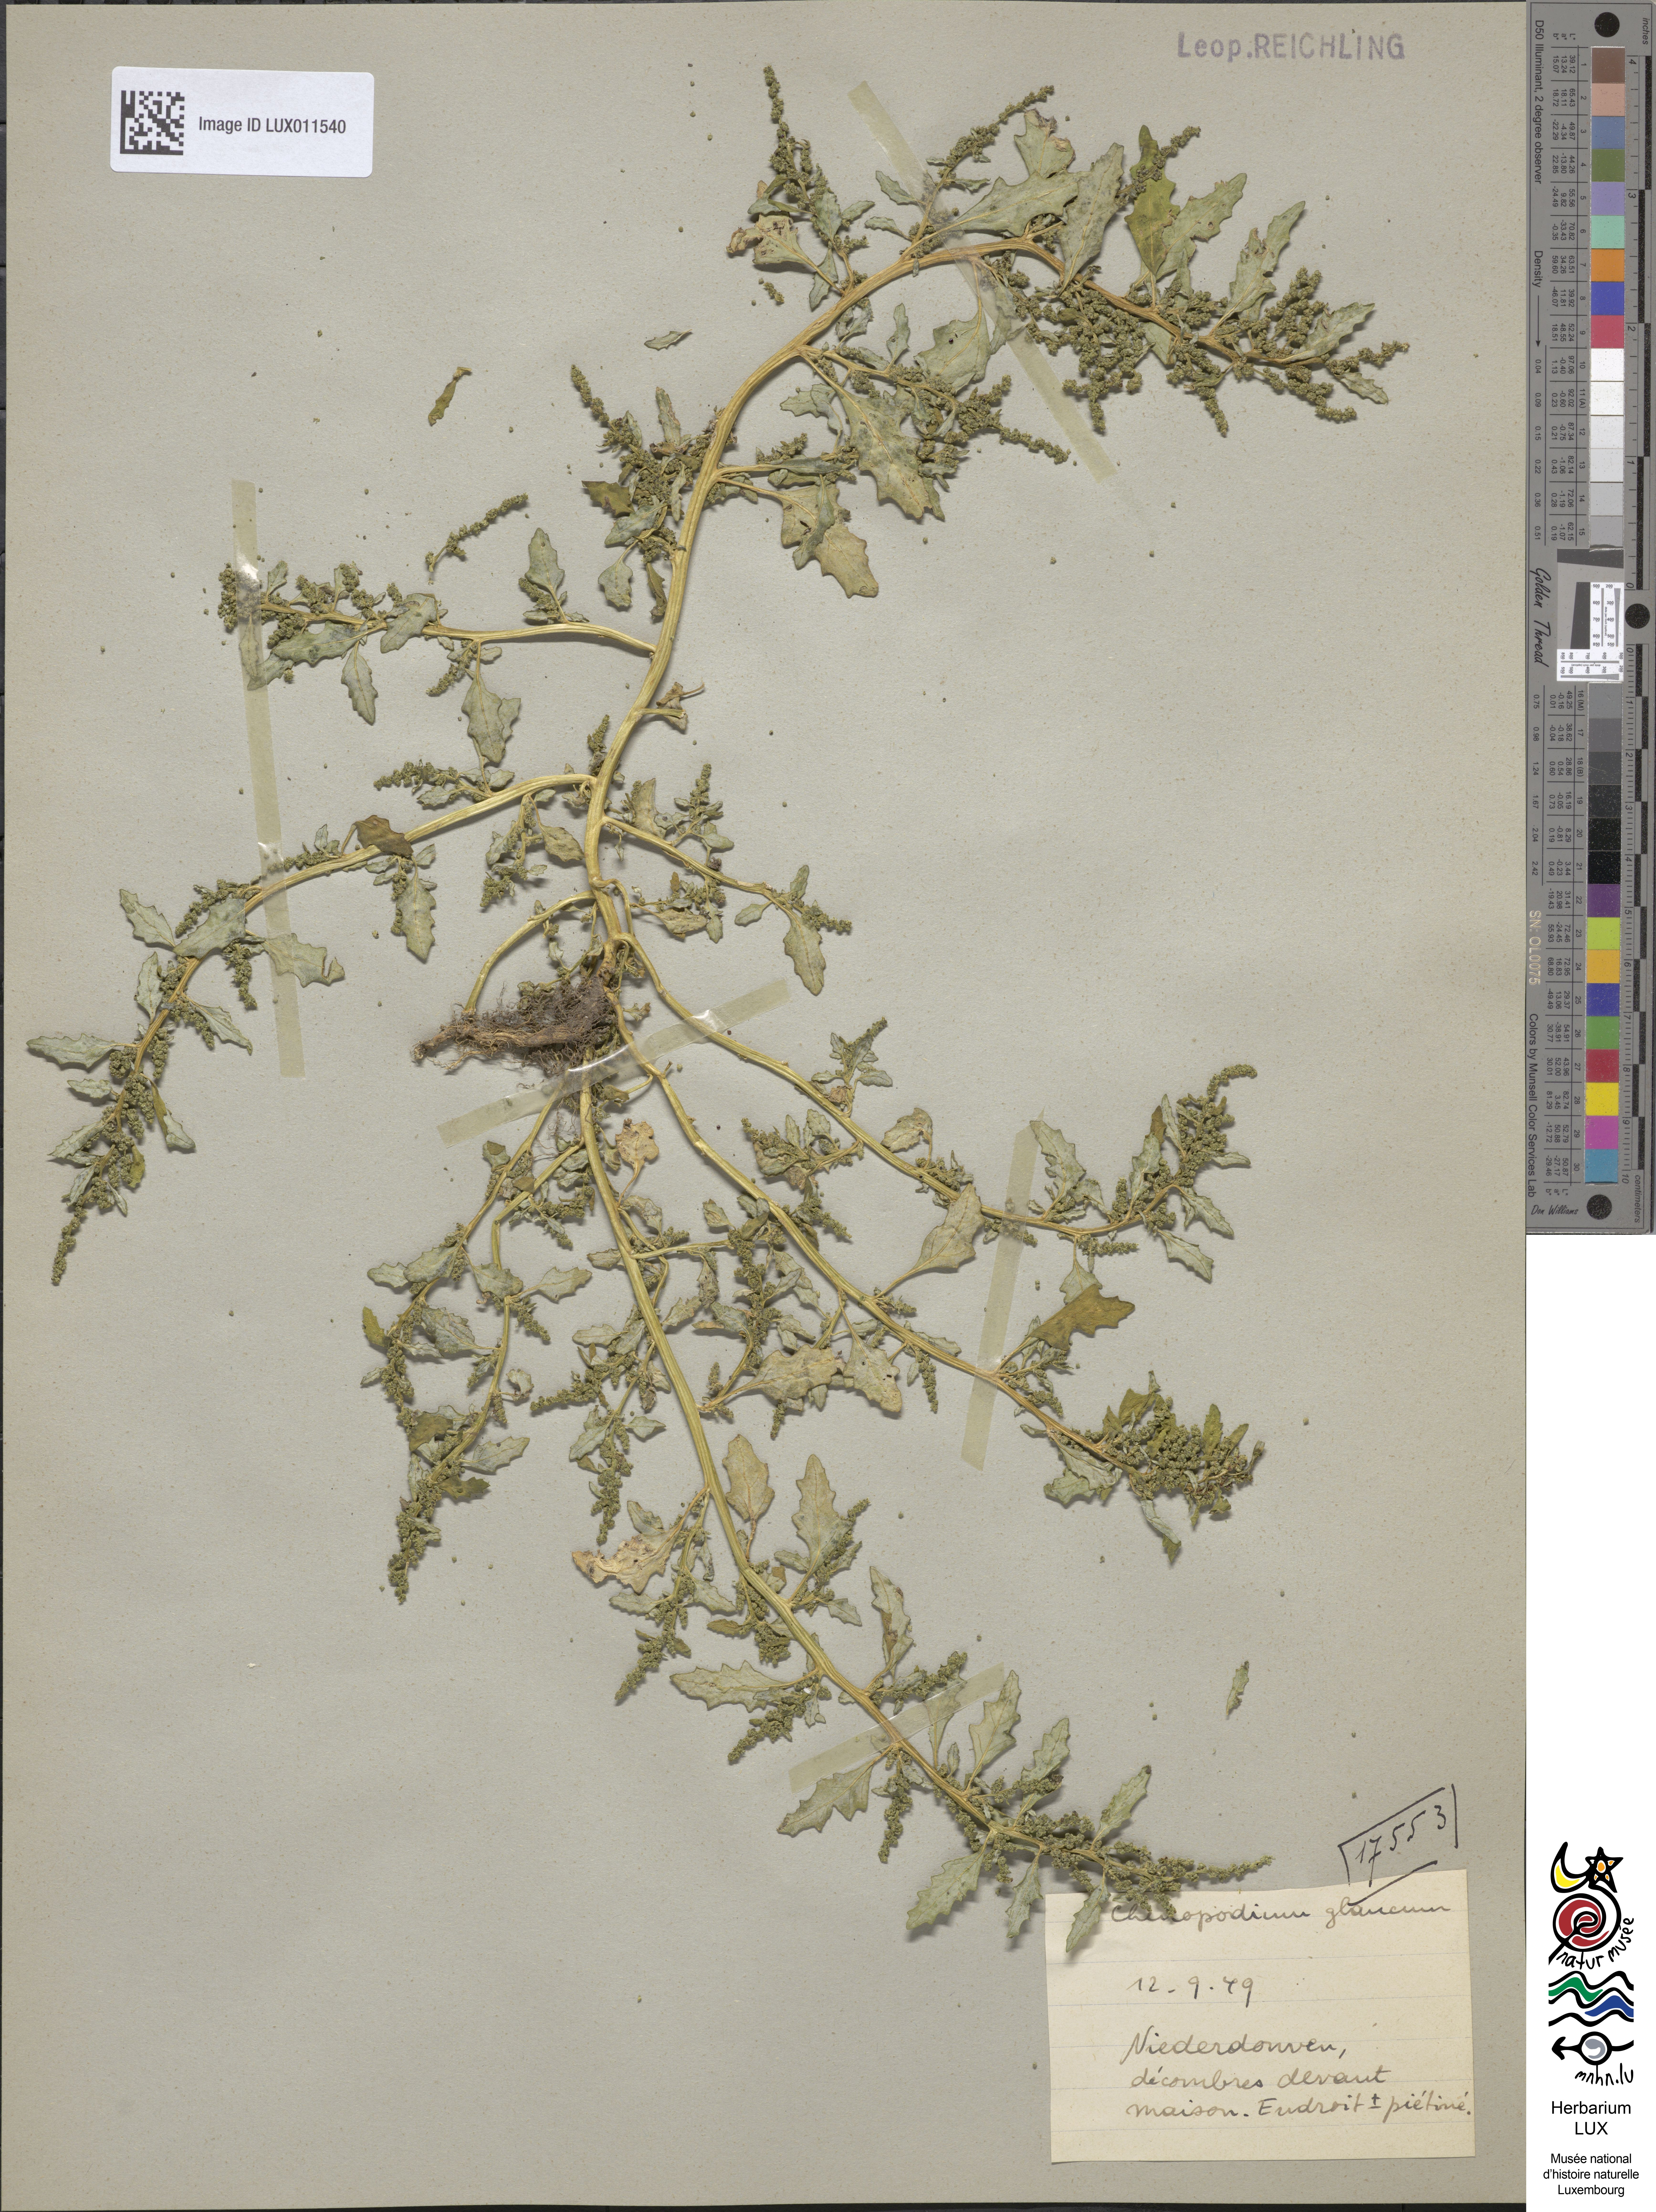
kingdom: Plantae
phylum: Tracheophyta
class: Magnoliopsida
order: Caryophyllales
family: Amaranthaceae
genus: Oxybasis
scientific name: Oxybasis glauca
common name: Glaucous goosefoot
